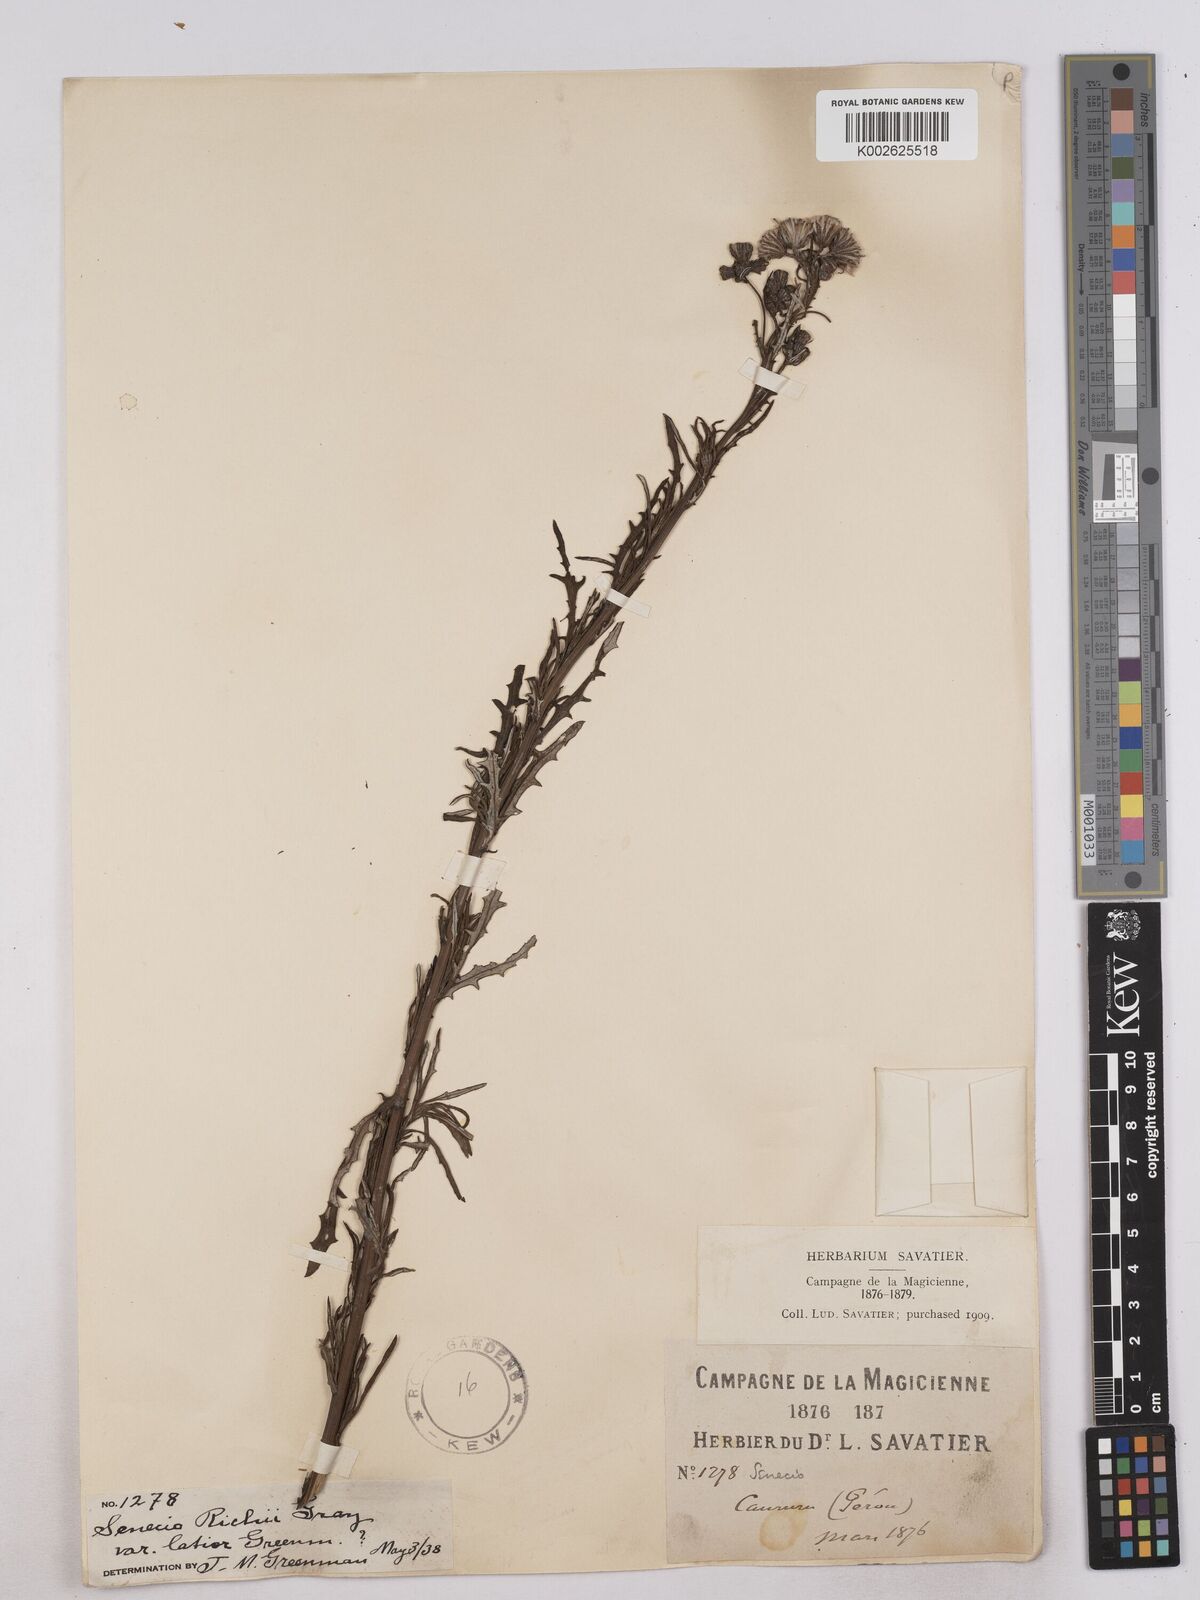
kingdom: Plantae
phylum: Tracheophyta
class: Magnoliopsida
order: Asterales
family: Asteraceae
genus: Senecio
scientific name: Senecio richii
